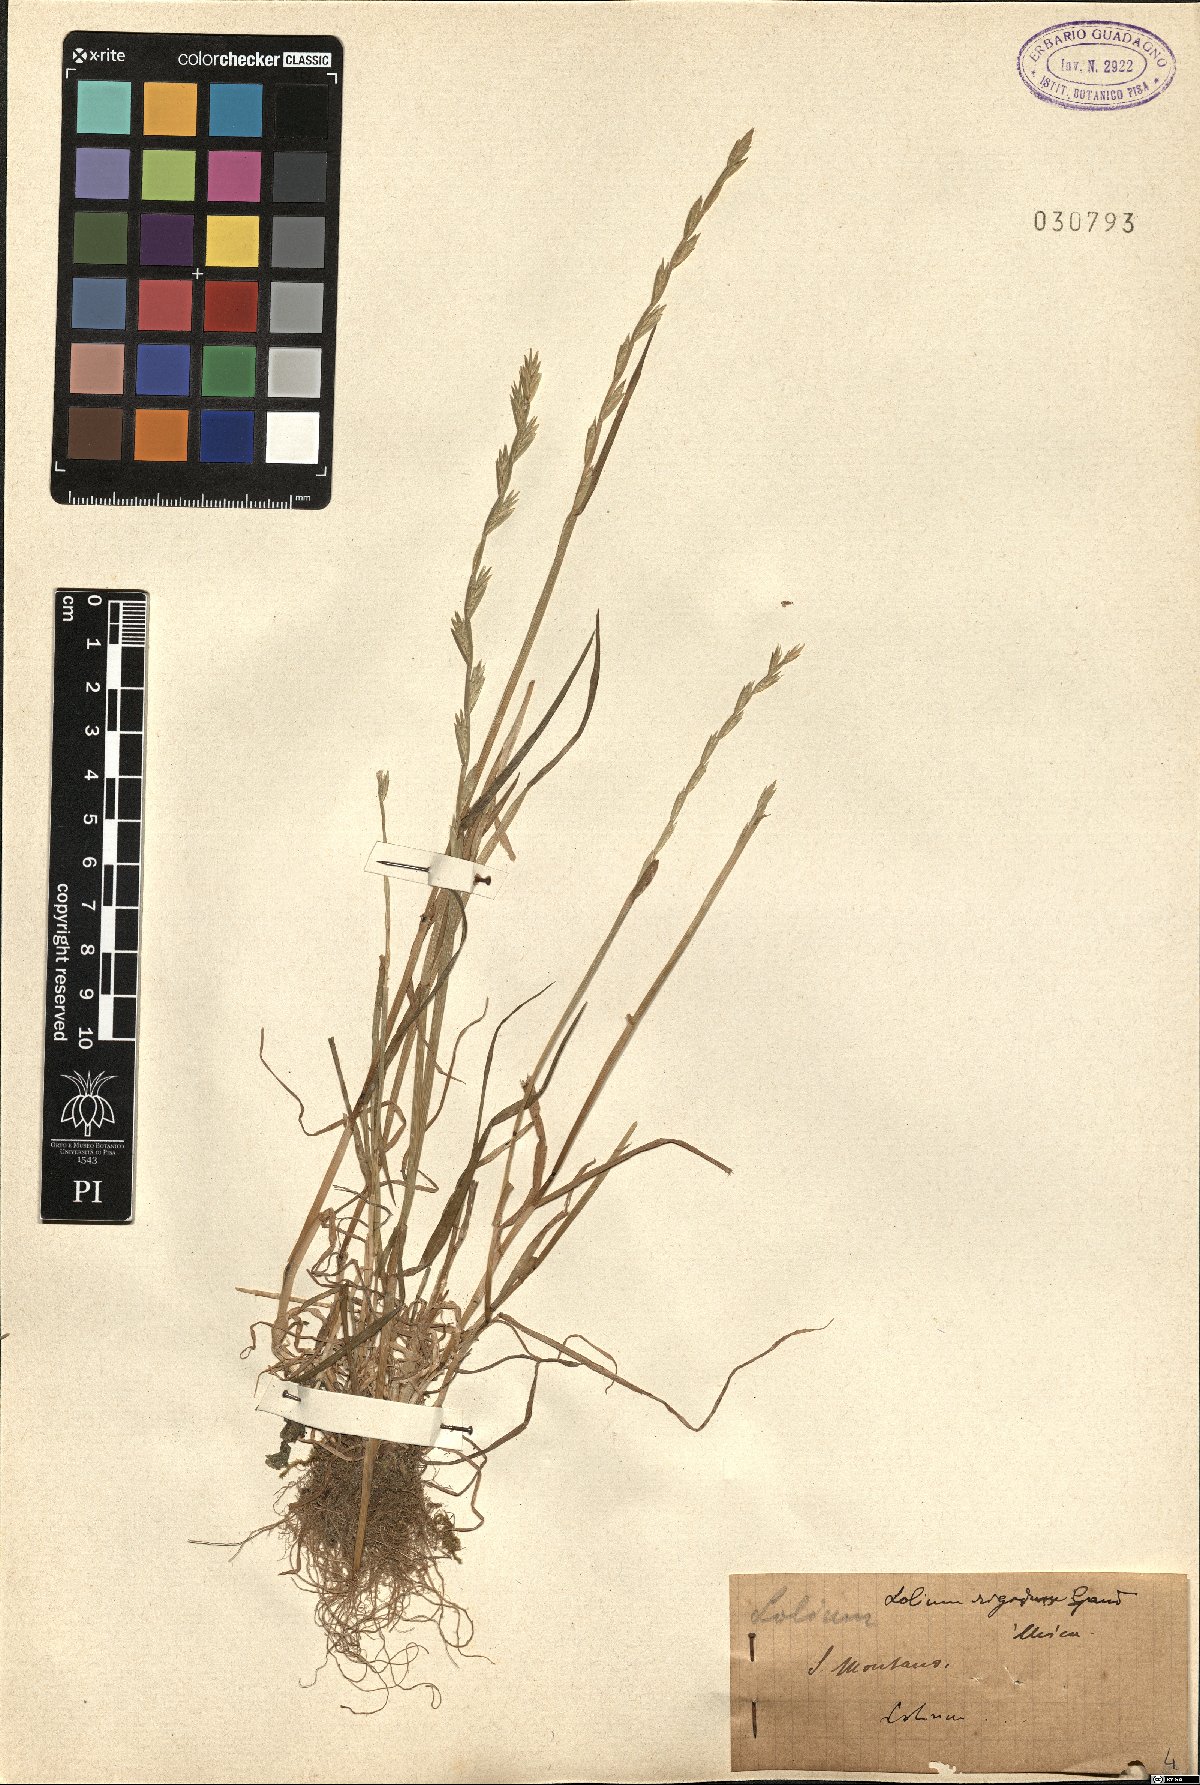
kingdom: Plantae
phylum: Tracheophyta
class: Liliopsida
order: Poales
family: Poaceae
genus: Lolium
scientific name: Lolium rigidum
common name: Wimmera ryegrass
